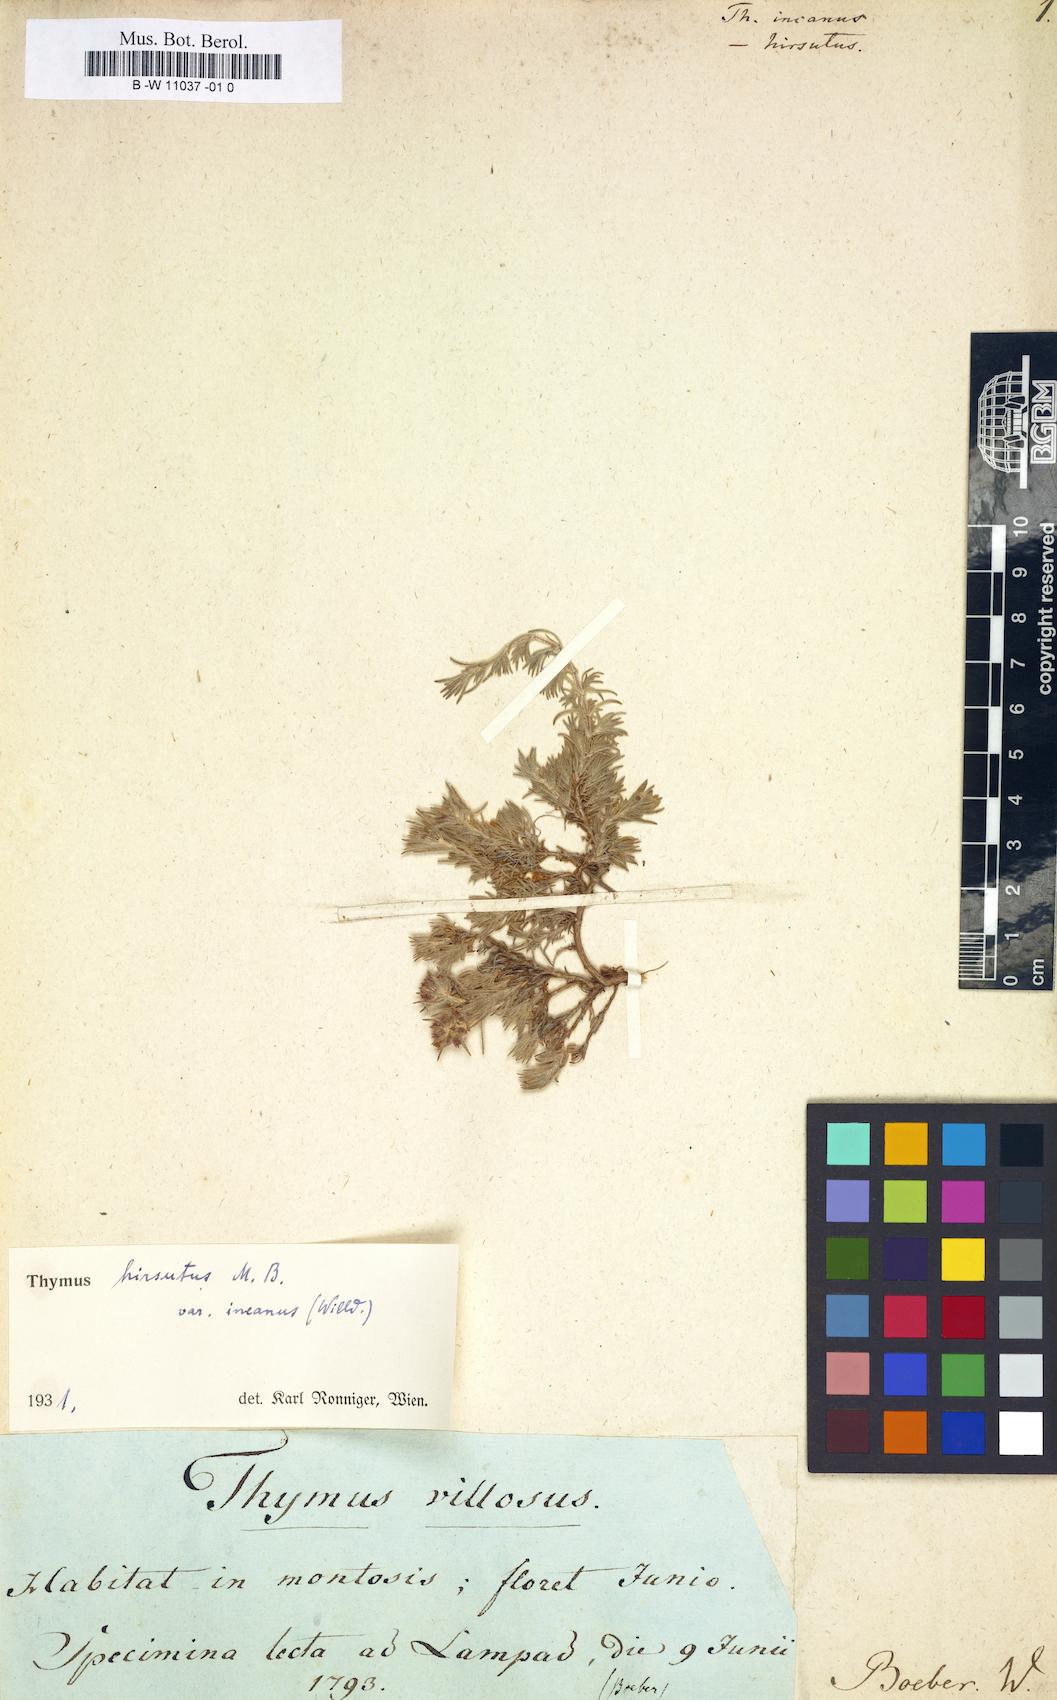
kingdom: Plantae
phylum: Tracheophyta
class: Magnoliopsida
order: Lamiales
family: Lamiaceae
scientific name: Lamiaceae
